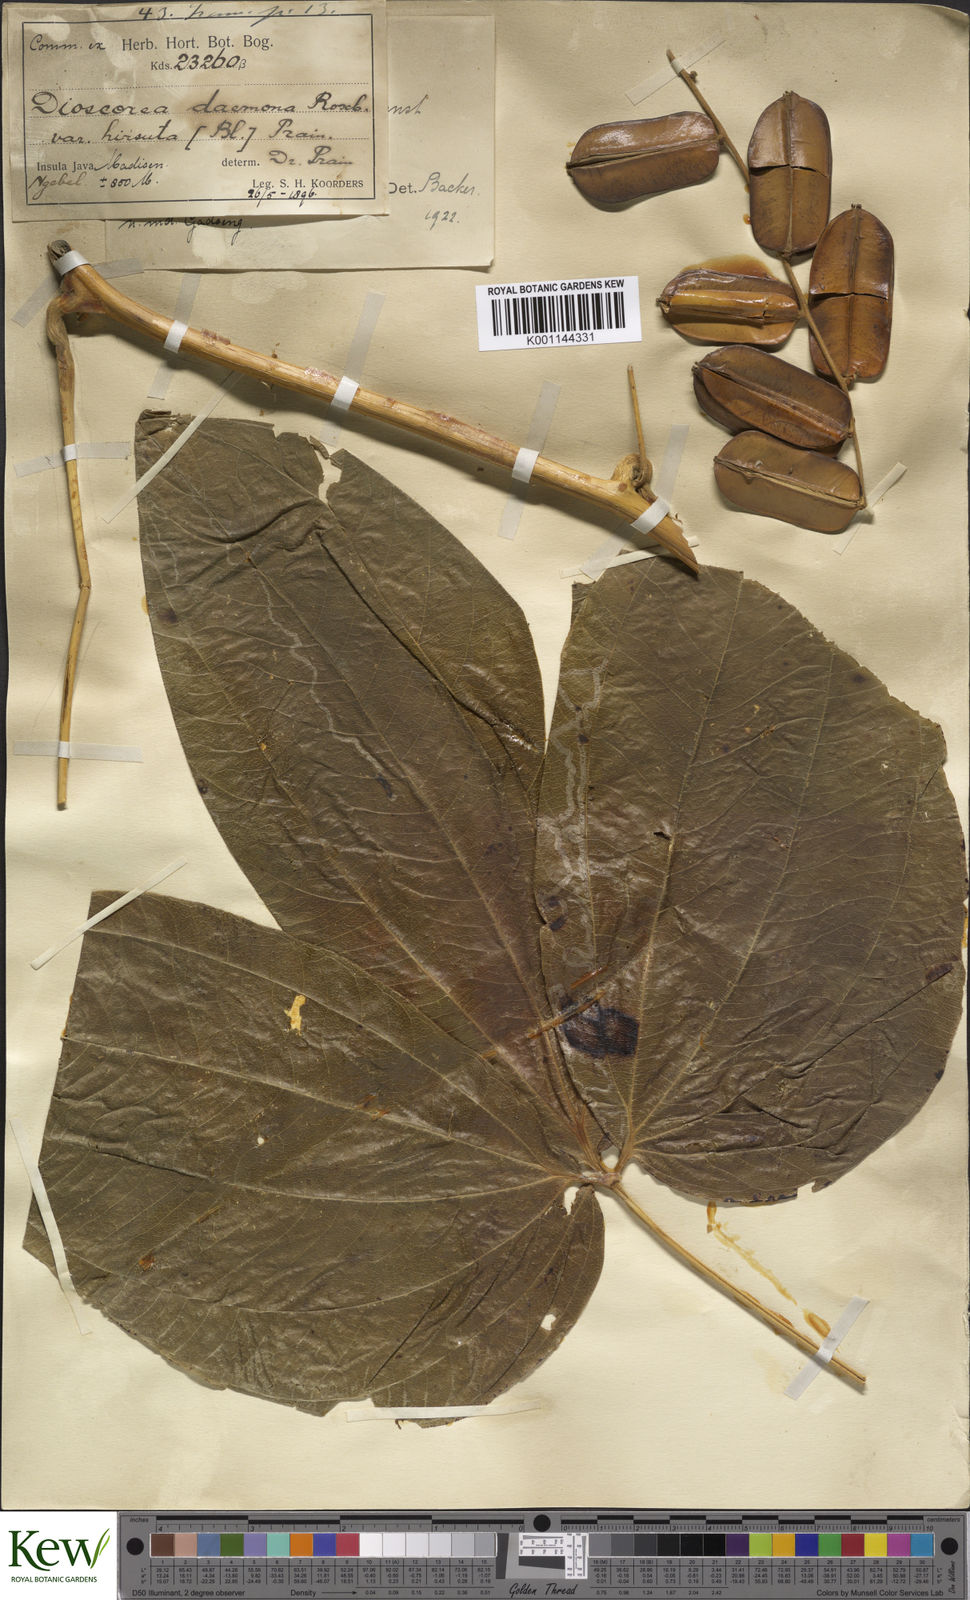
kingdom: Plantae
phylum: Tracheophyta
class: Liliopsida
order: Dioscoreales
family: Dioscoreaceae
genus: Dioscorea
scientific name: Dioscorea hispida
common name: Asiatic bitter yam
